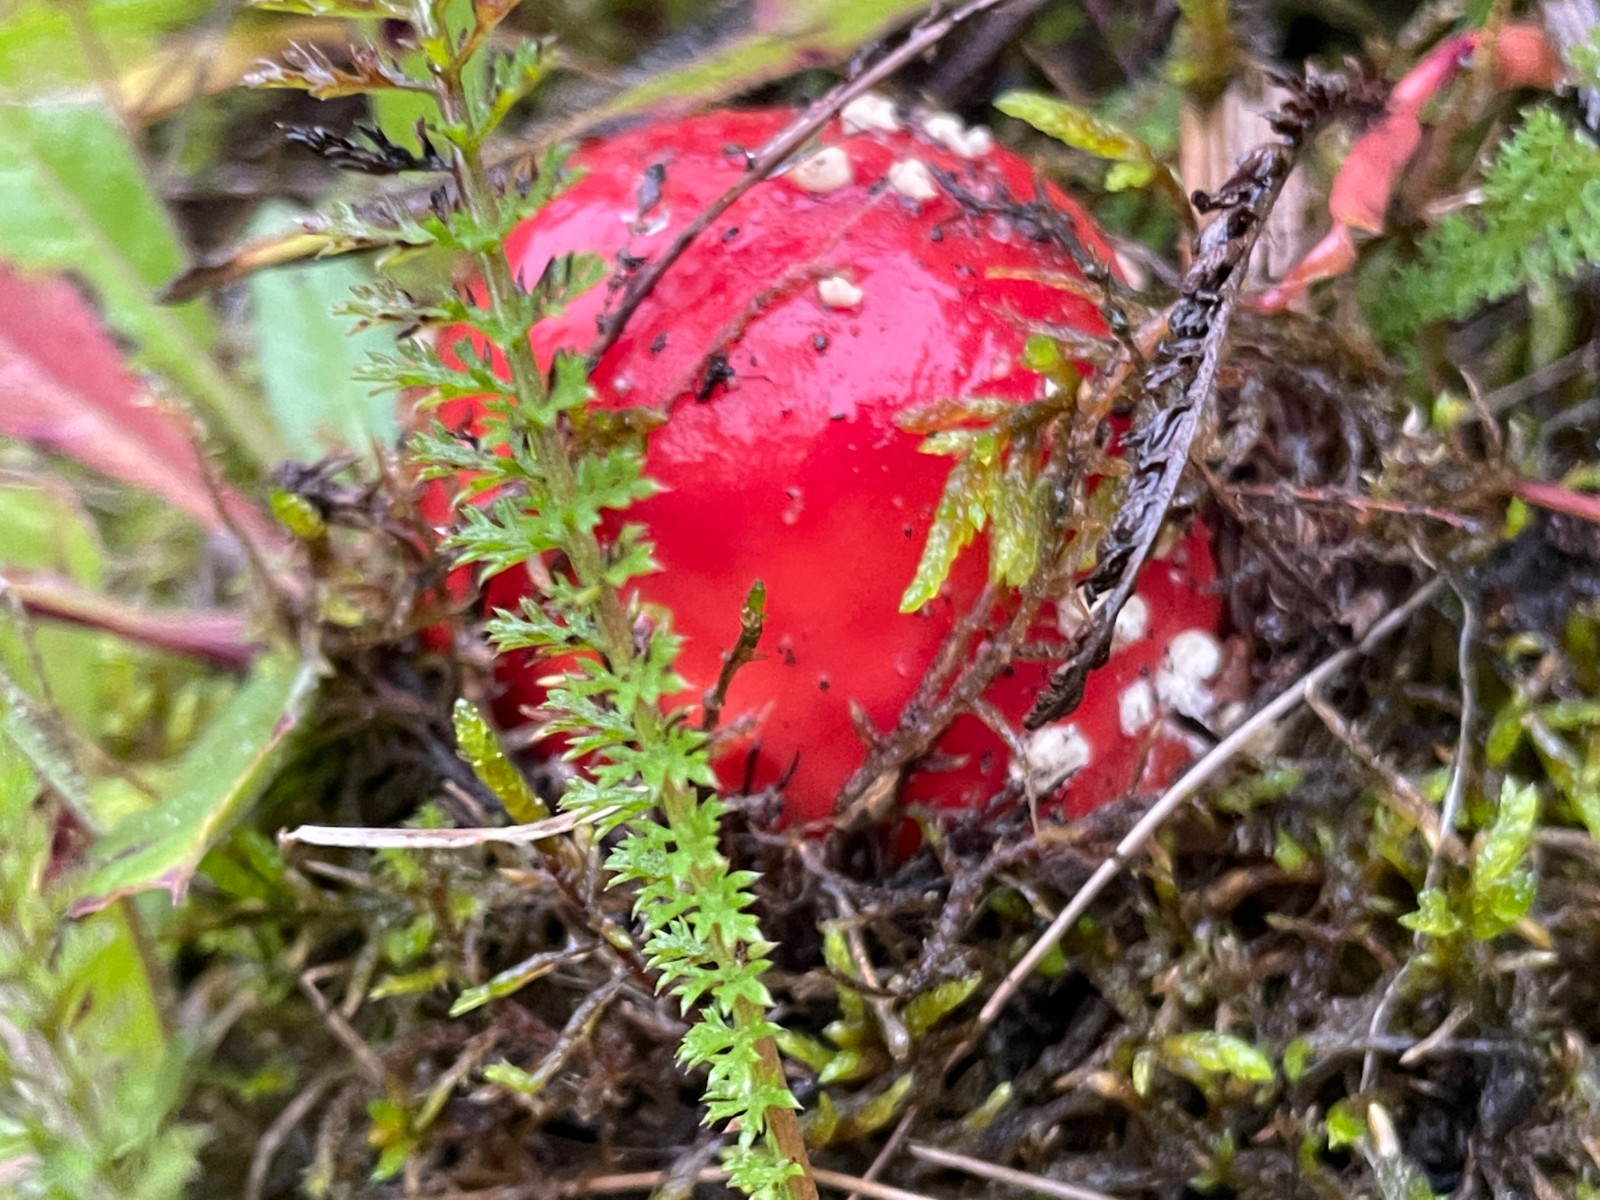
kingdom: Fungi
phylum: Basidiomycota
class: Agaricomycetes
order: Agaricales
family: Amanitaceae
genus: Amanita
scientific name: Amanita muscaria
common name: rød fluesvamp
